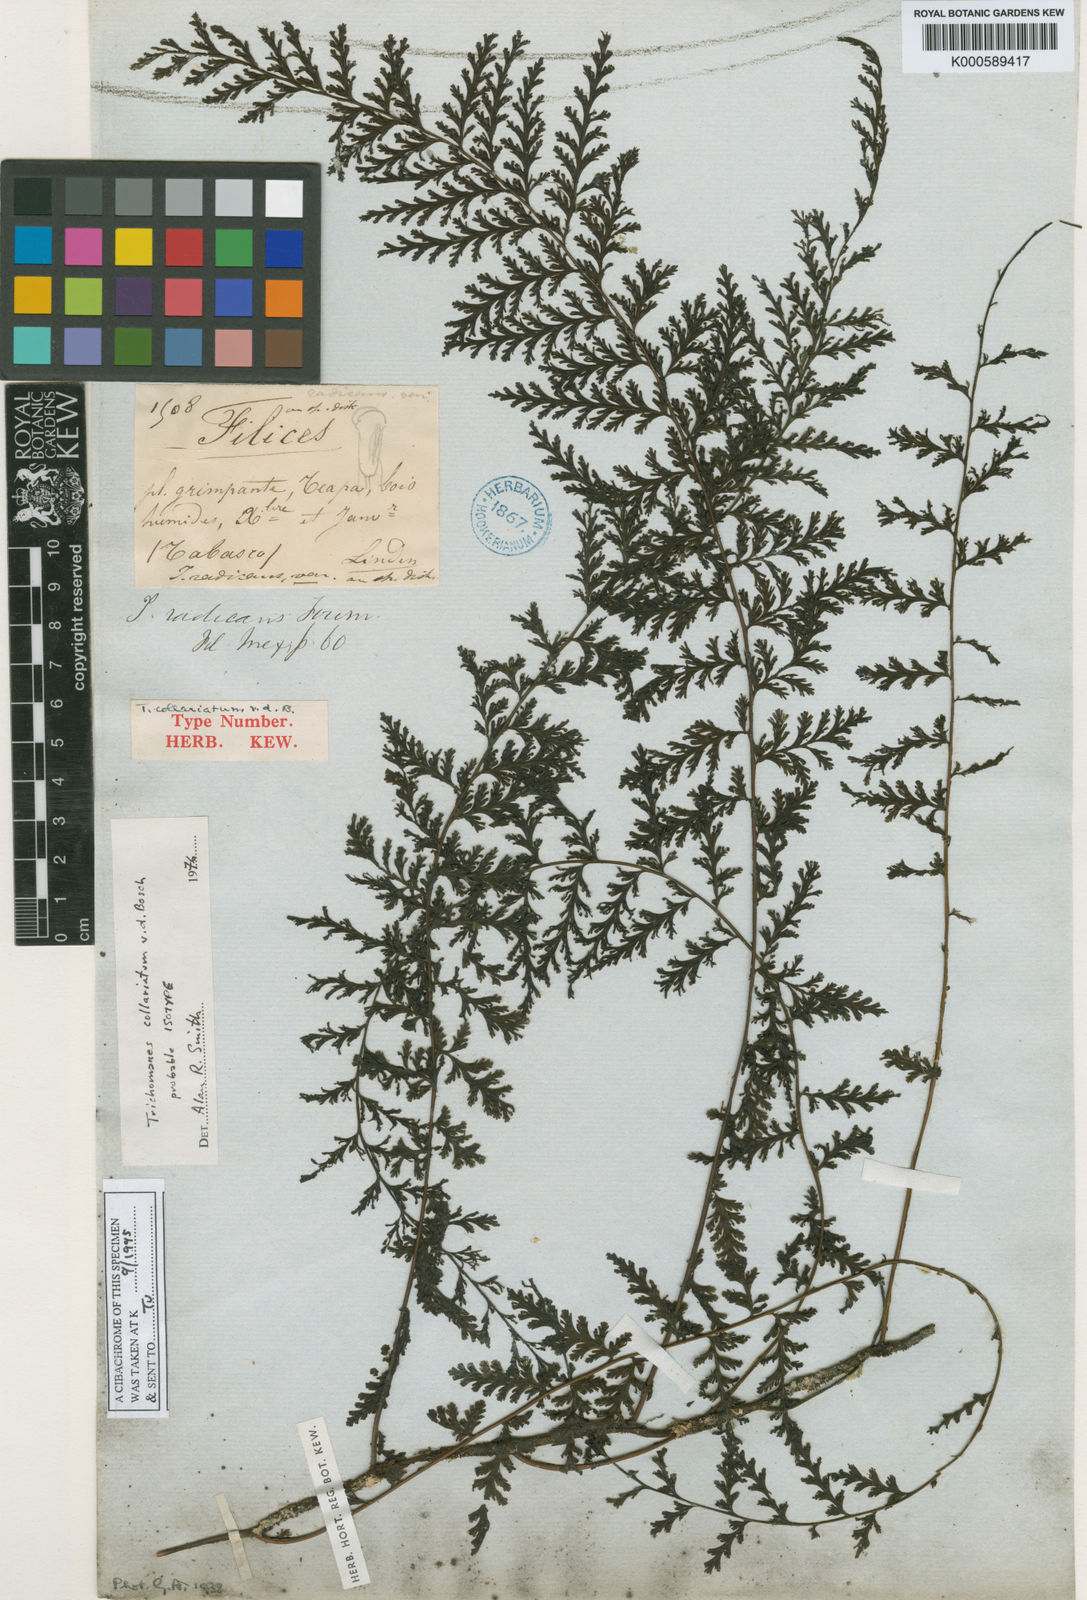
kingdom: Plantae
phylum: Tracheophyta
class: Polypodiopsida
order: Hymenophyllales
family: Hymenophyllaceae
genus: Vandenboschia
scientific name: Vandenboschia collariata
